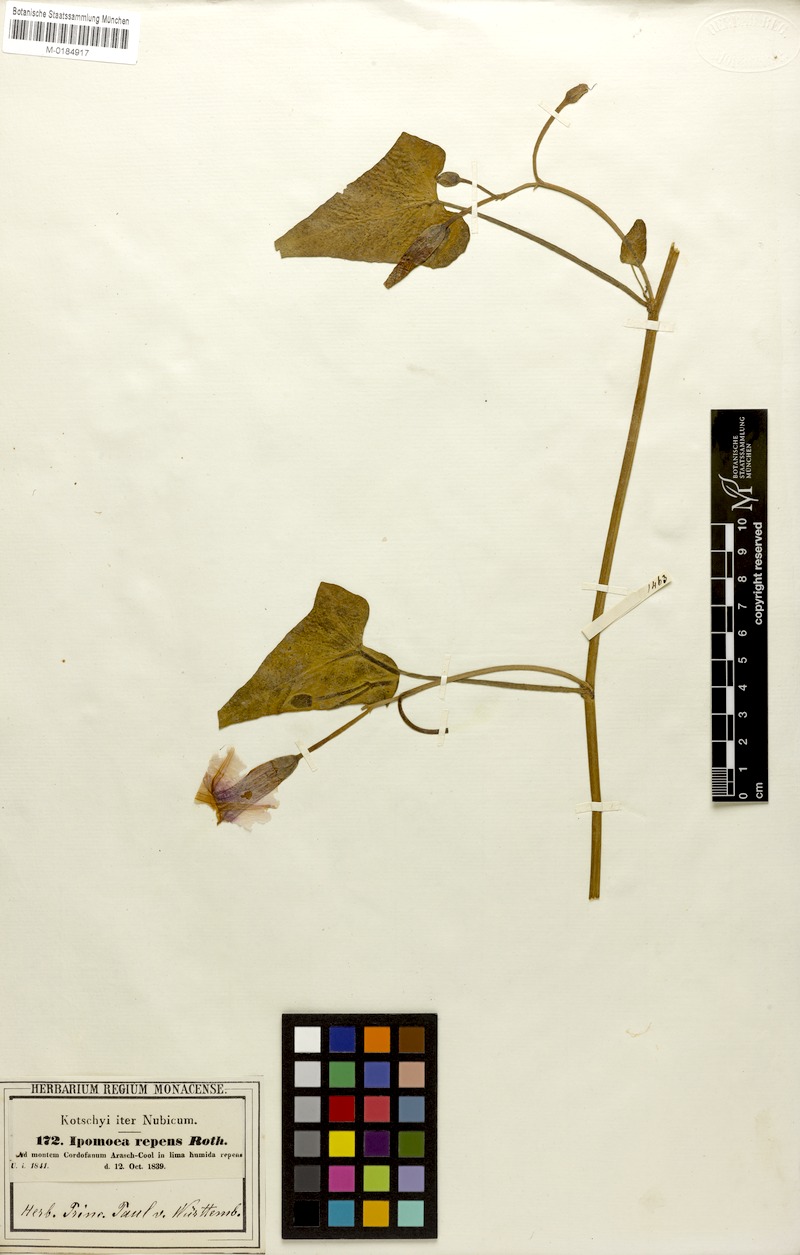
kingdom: Plantae
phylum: Tracheophyta
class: Magnoliopsida
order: Solanales
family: Convolvulaceae
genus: Ipomoea
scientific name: Ipomoea aquatica
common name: Swamp morning-glory
